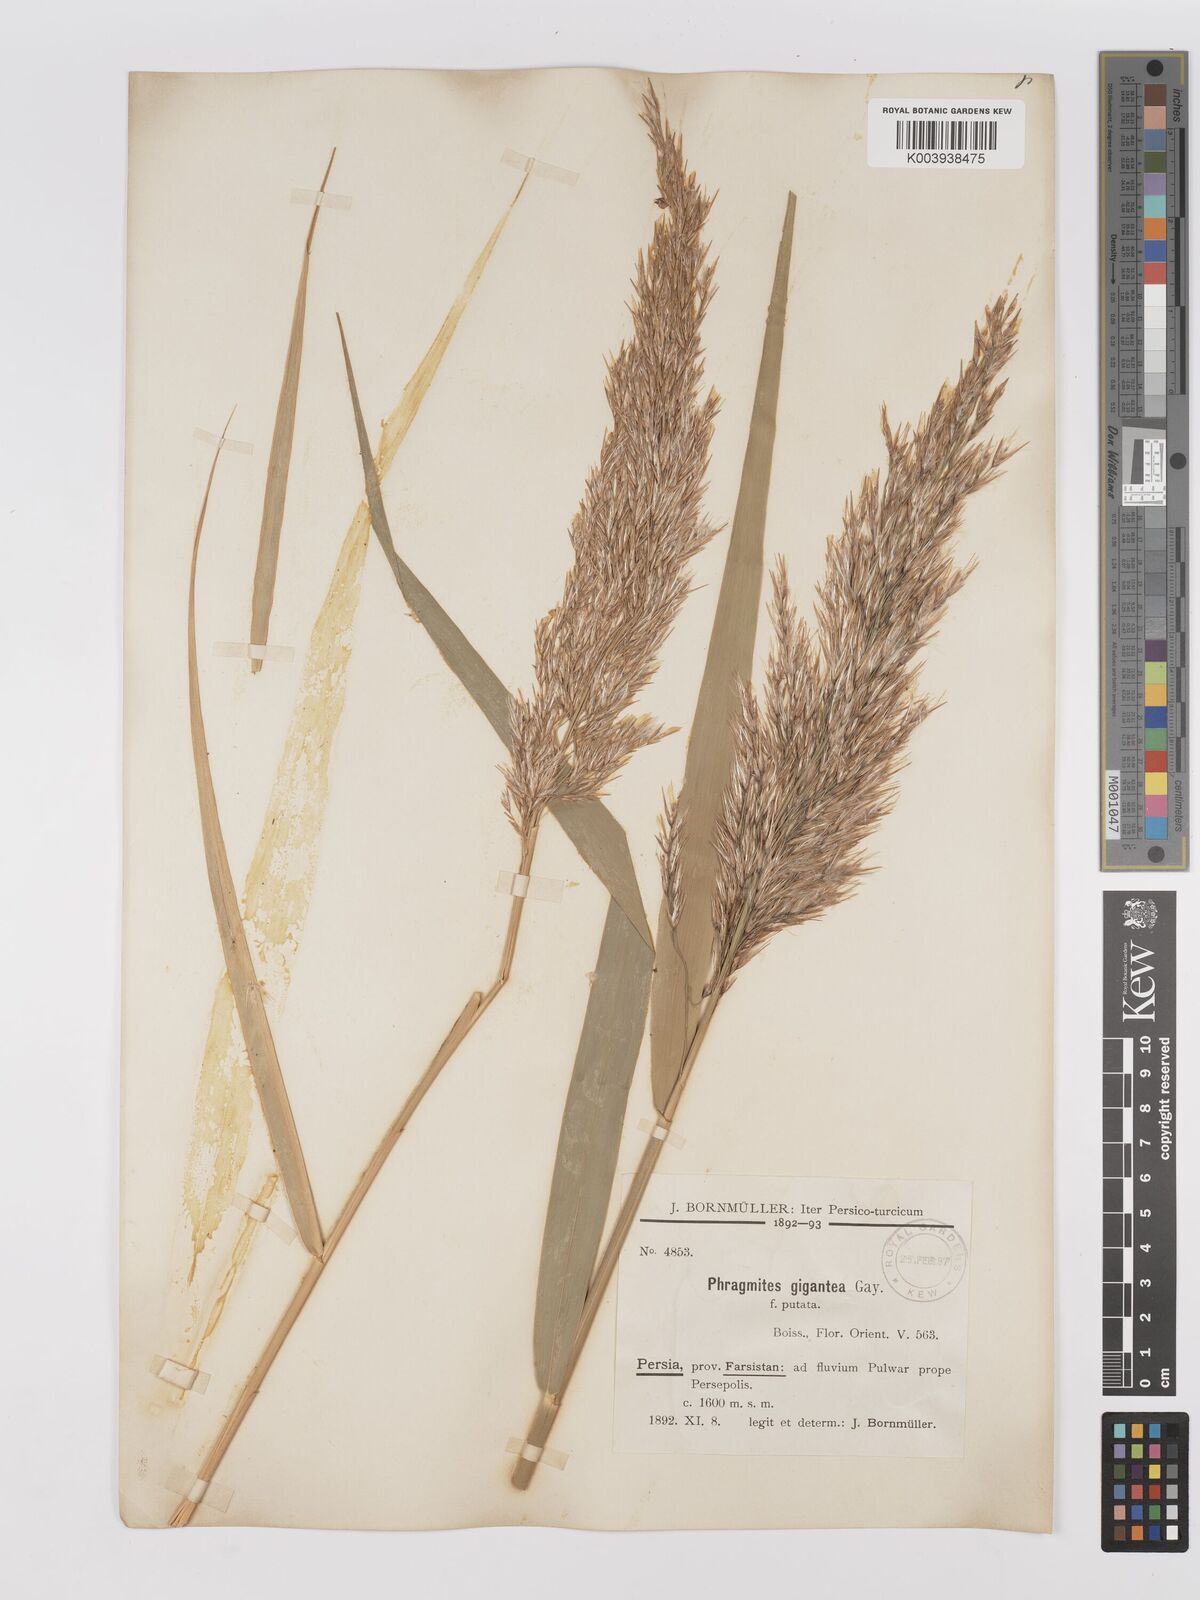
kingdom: Plantae
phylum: Tracheophyta
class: Liliopsida
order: Poales
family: Poaceae
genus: Phragmites
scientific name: Phragmites australis
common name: Common reed
